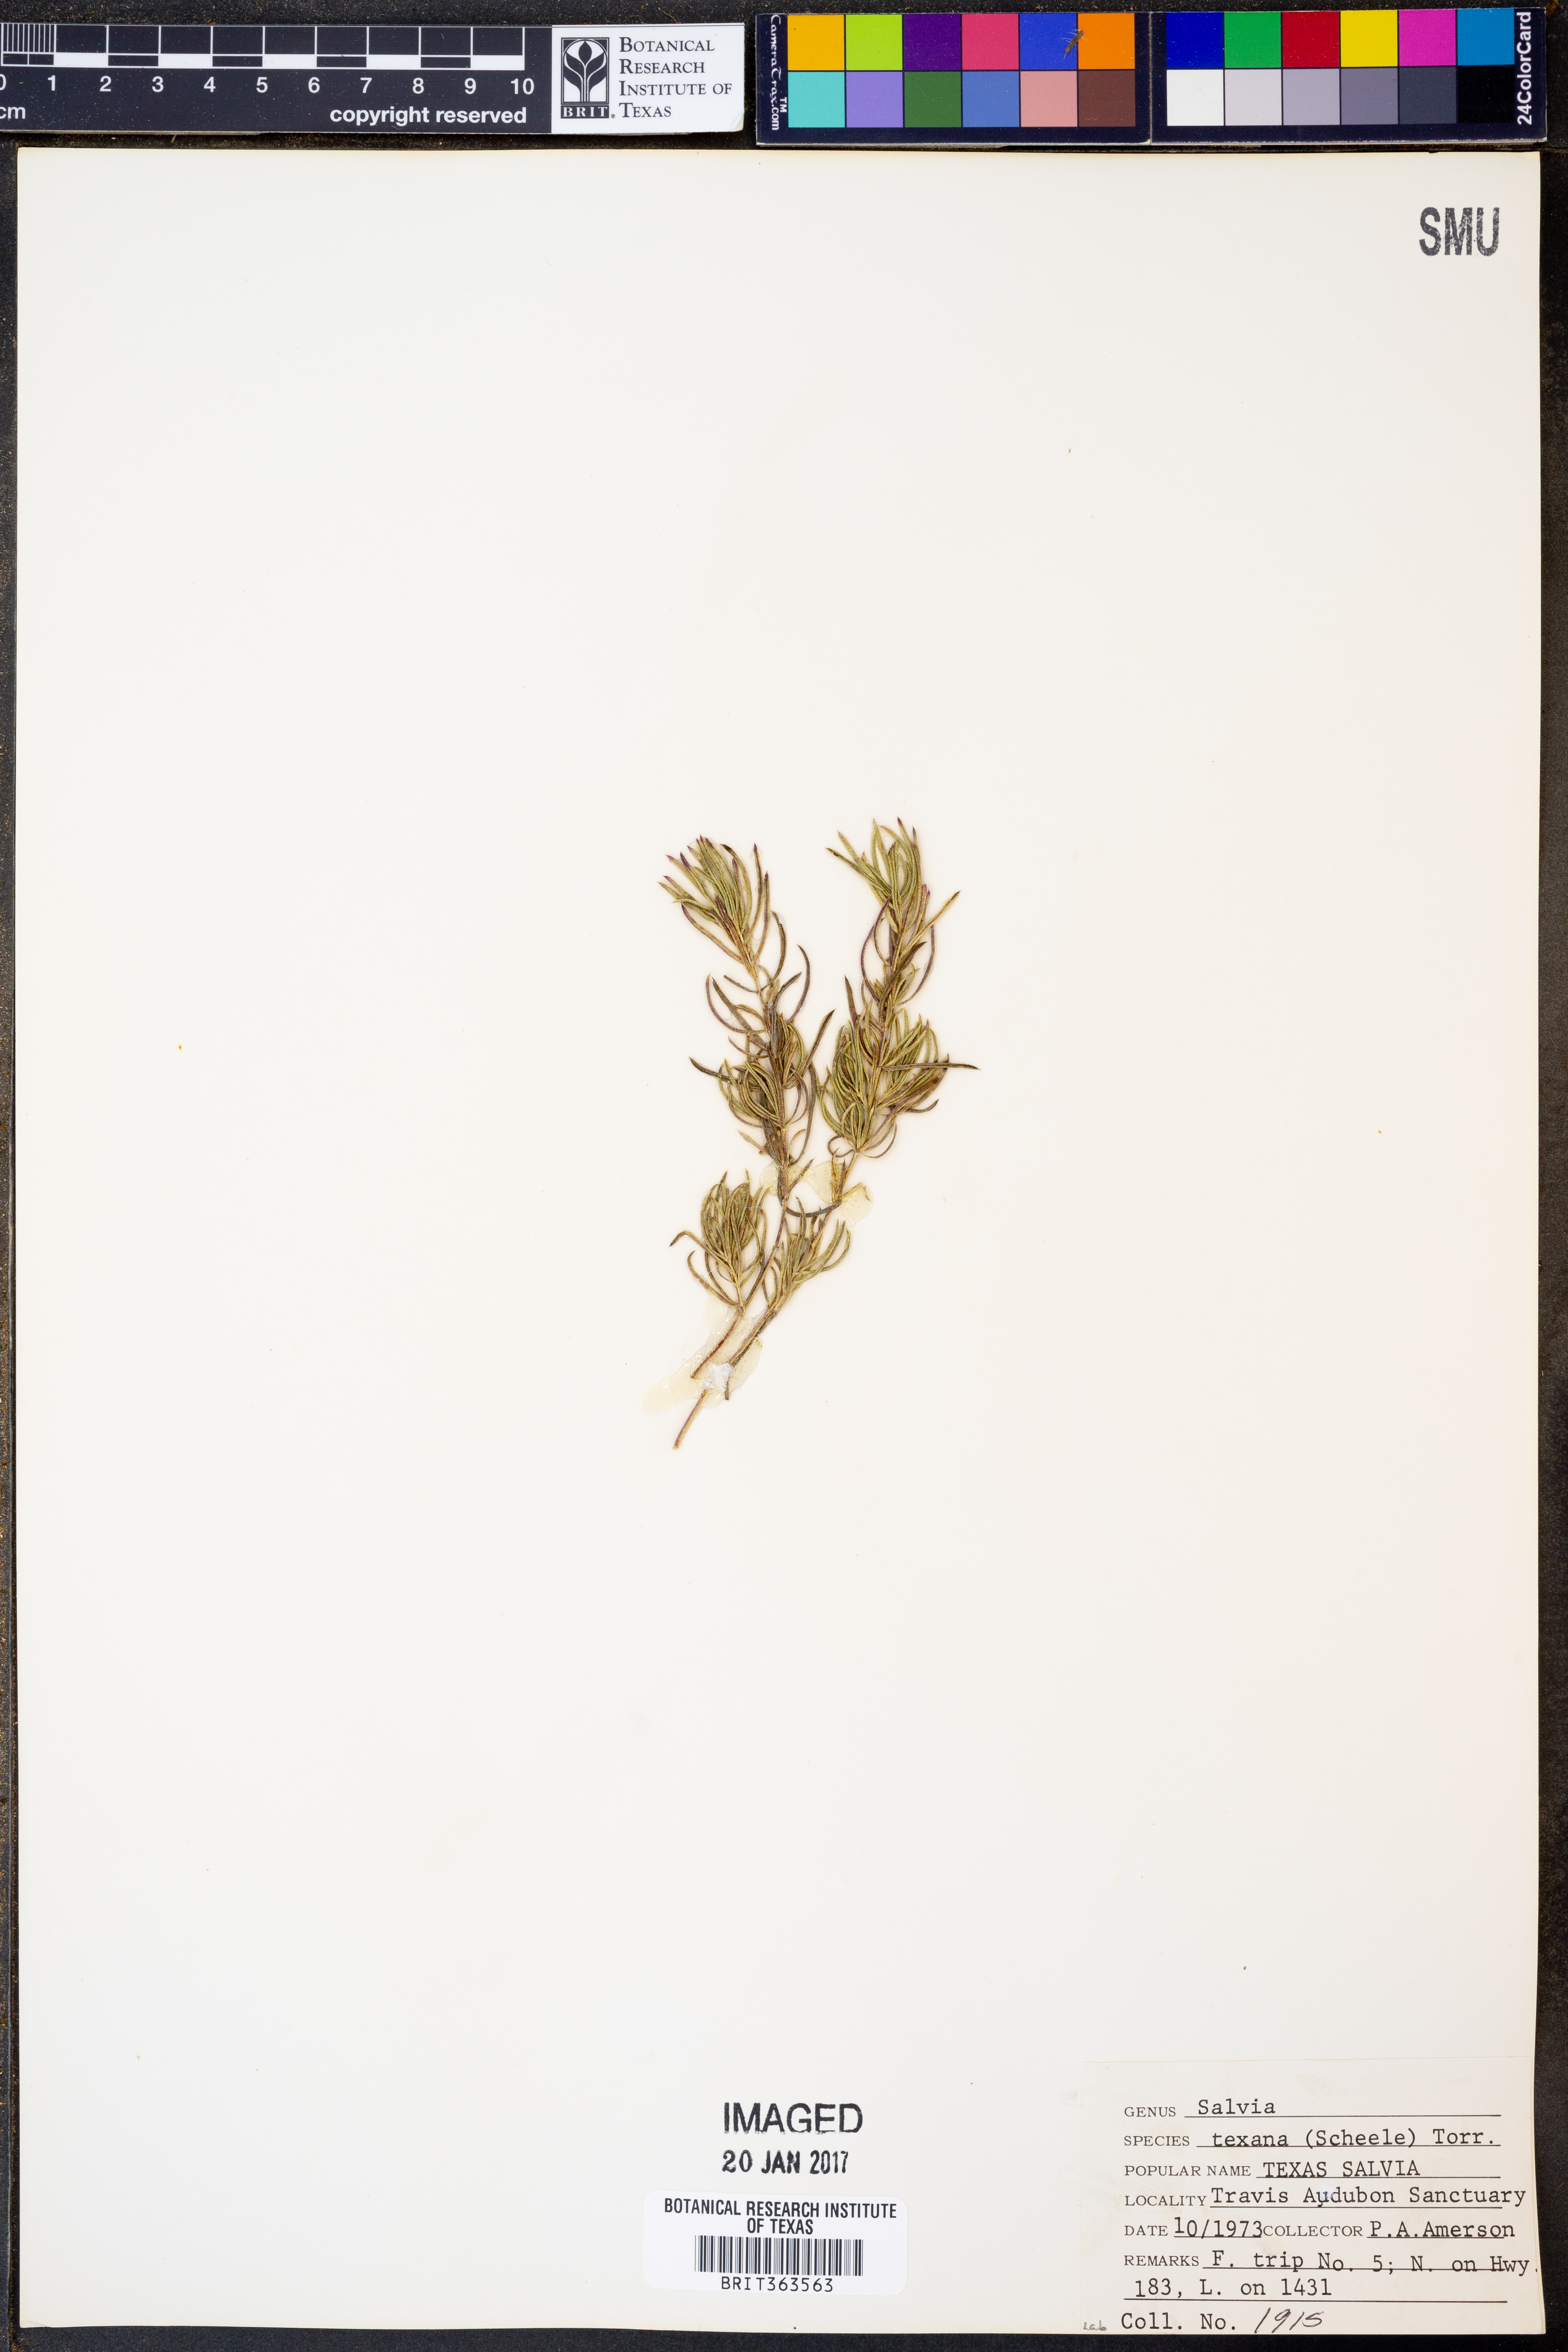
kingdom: Plantae
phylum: Tracheophyta
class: Magnoliopsida
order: Lamiales
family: Lamiaceae
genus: Salvia
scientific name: Salvia texana
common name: Texas sage
